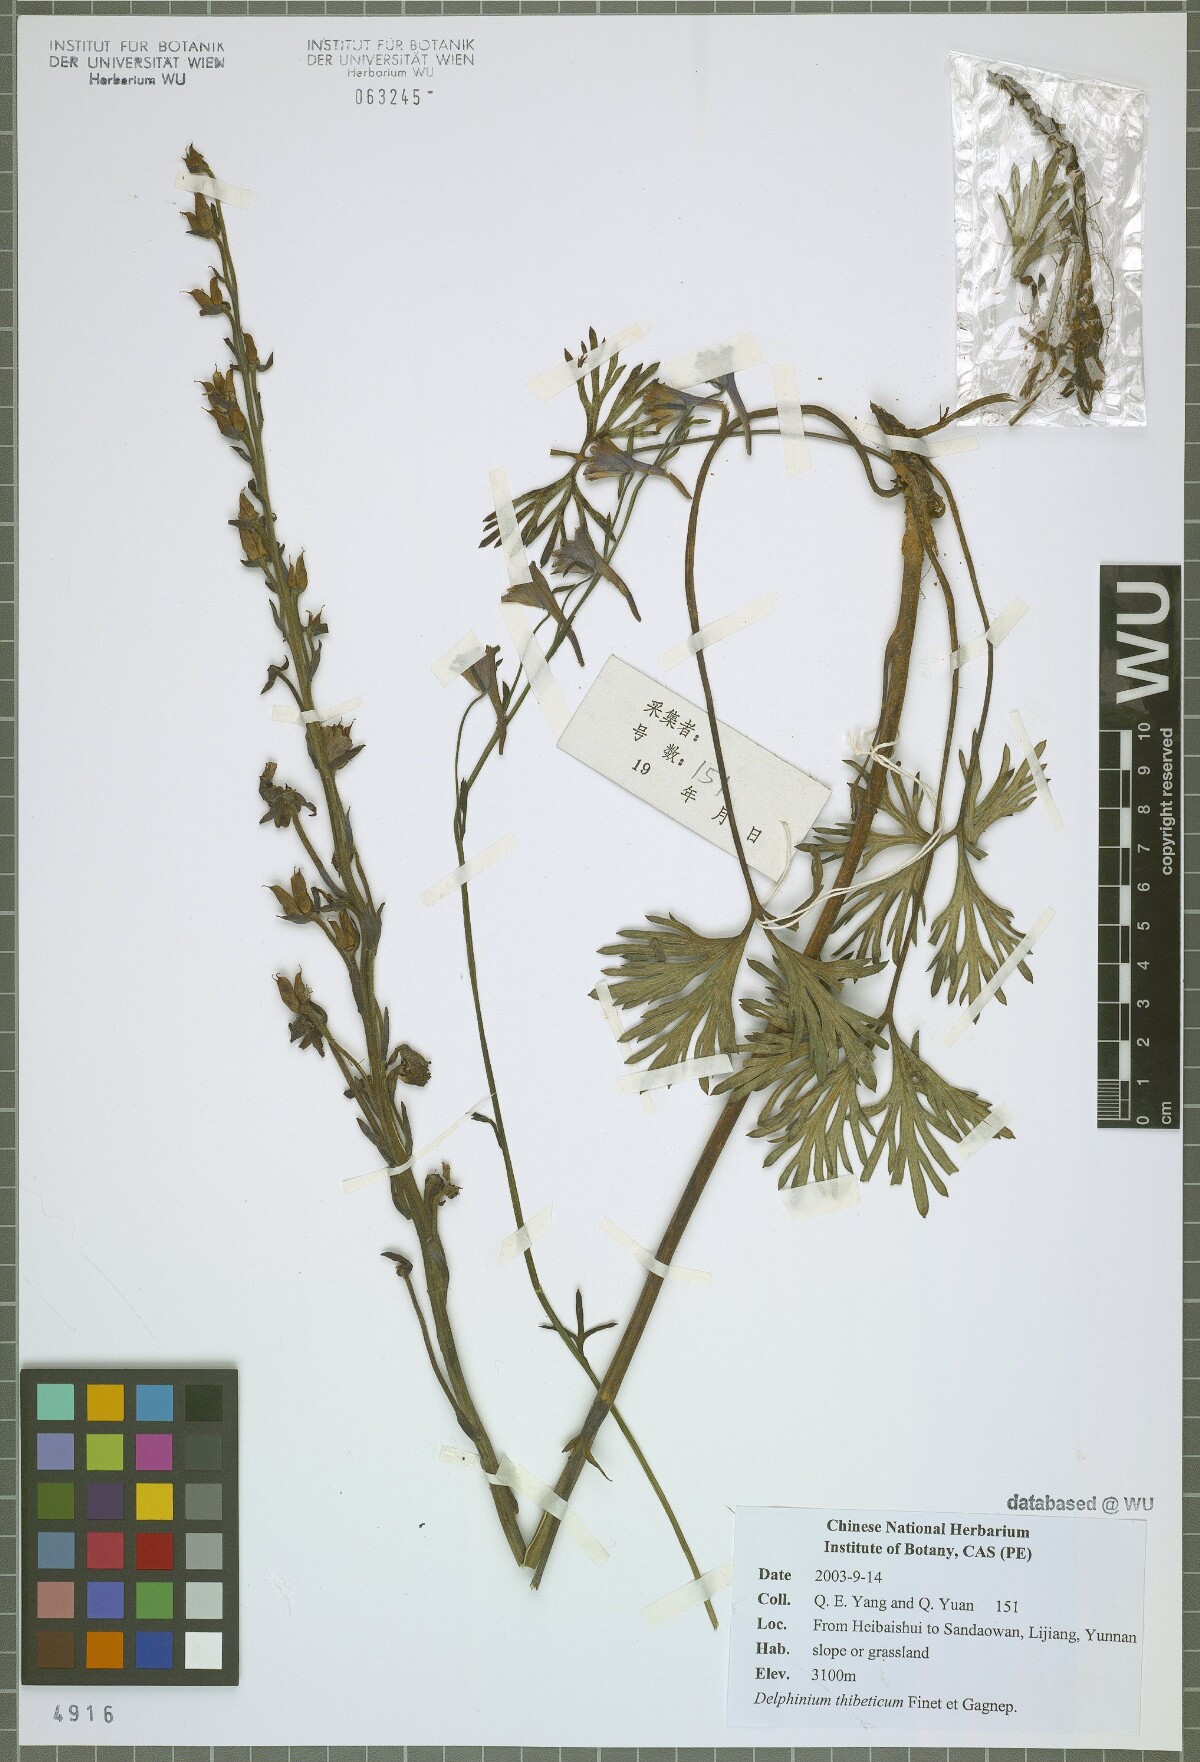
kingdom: Plantae
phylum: Tracheophyta
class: Magnoliopsida
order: Ranunculales
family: Ranunculaceae
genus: Delphinium
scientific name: Delphinium thibeticum
